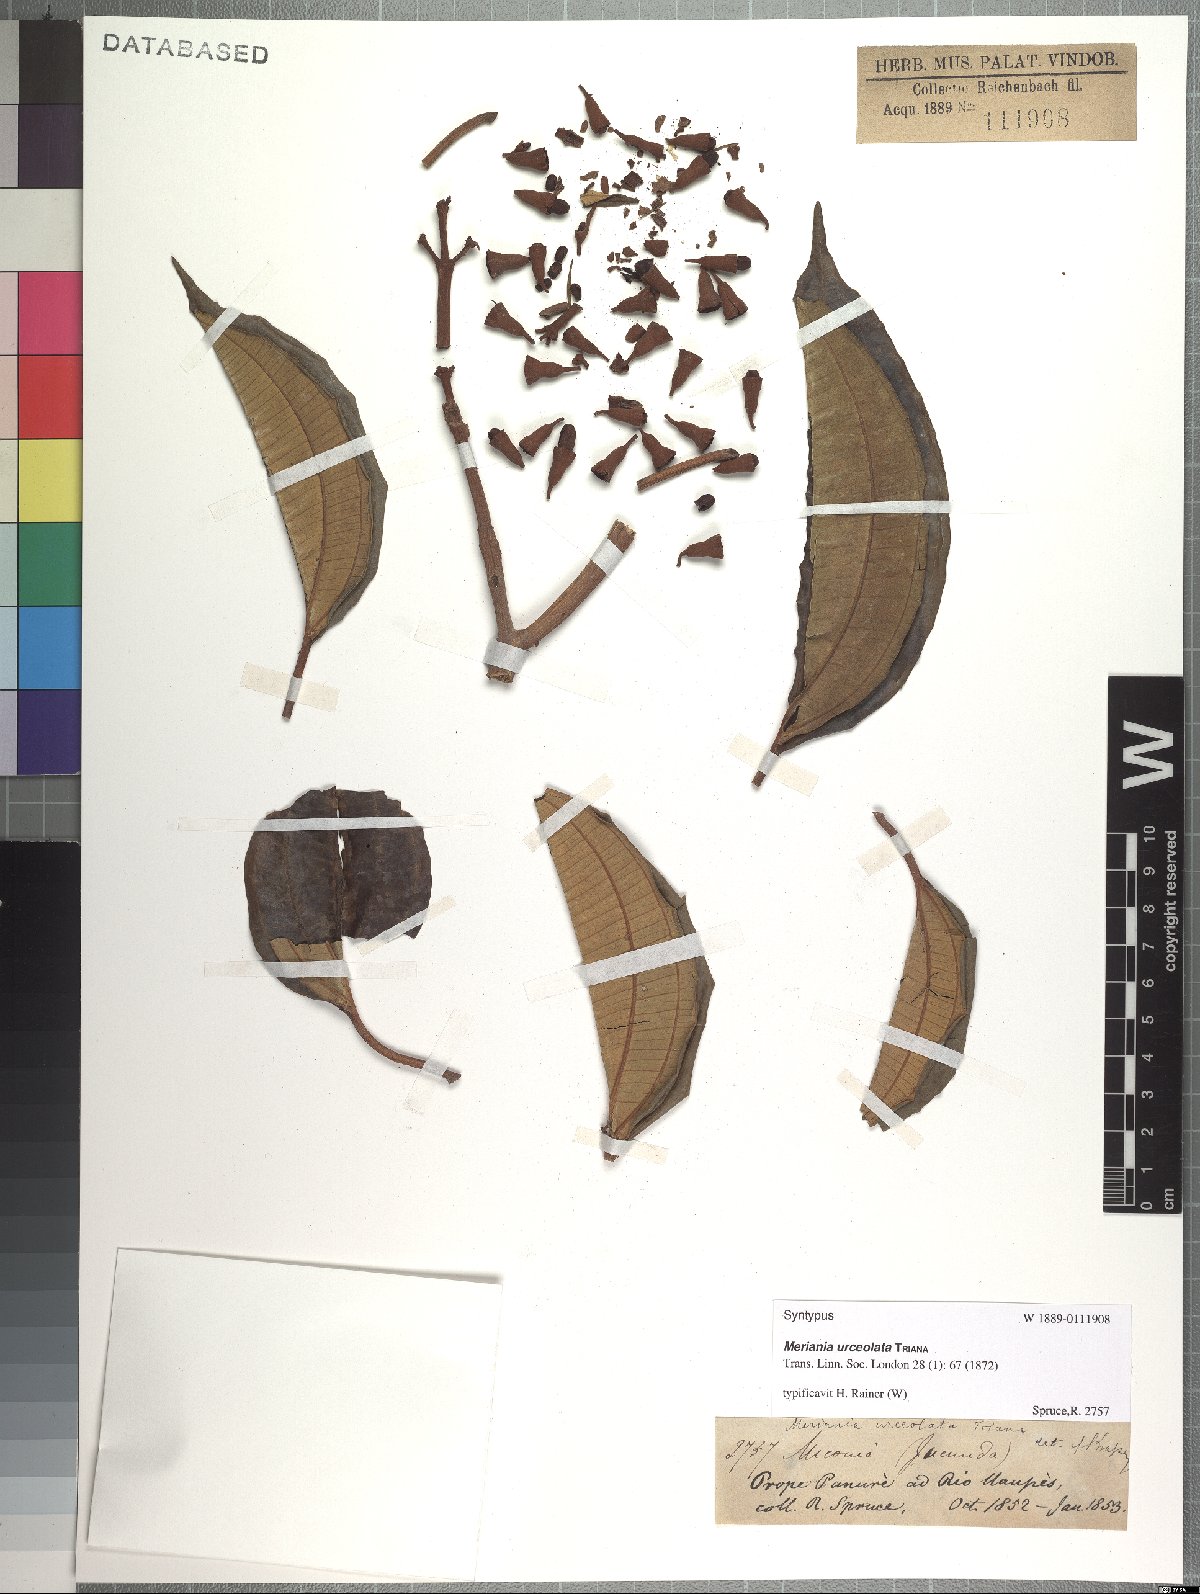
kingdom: Plantae
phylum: Tracheophyta
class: Magnoliopsida
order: Myrtales
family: Melastomataceae
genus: Meriania
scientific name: Meriania urceolata
